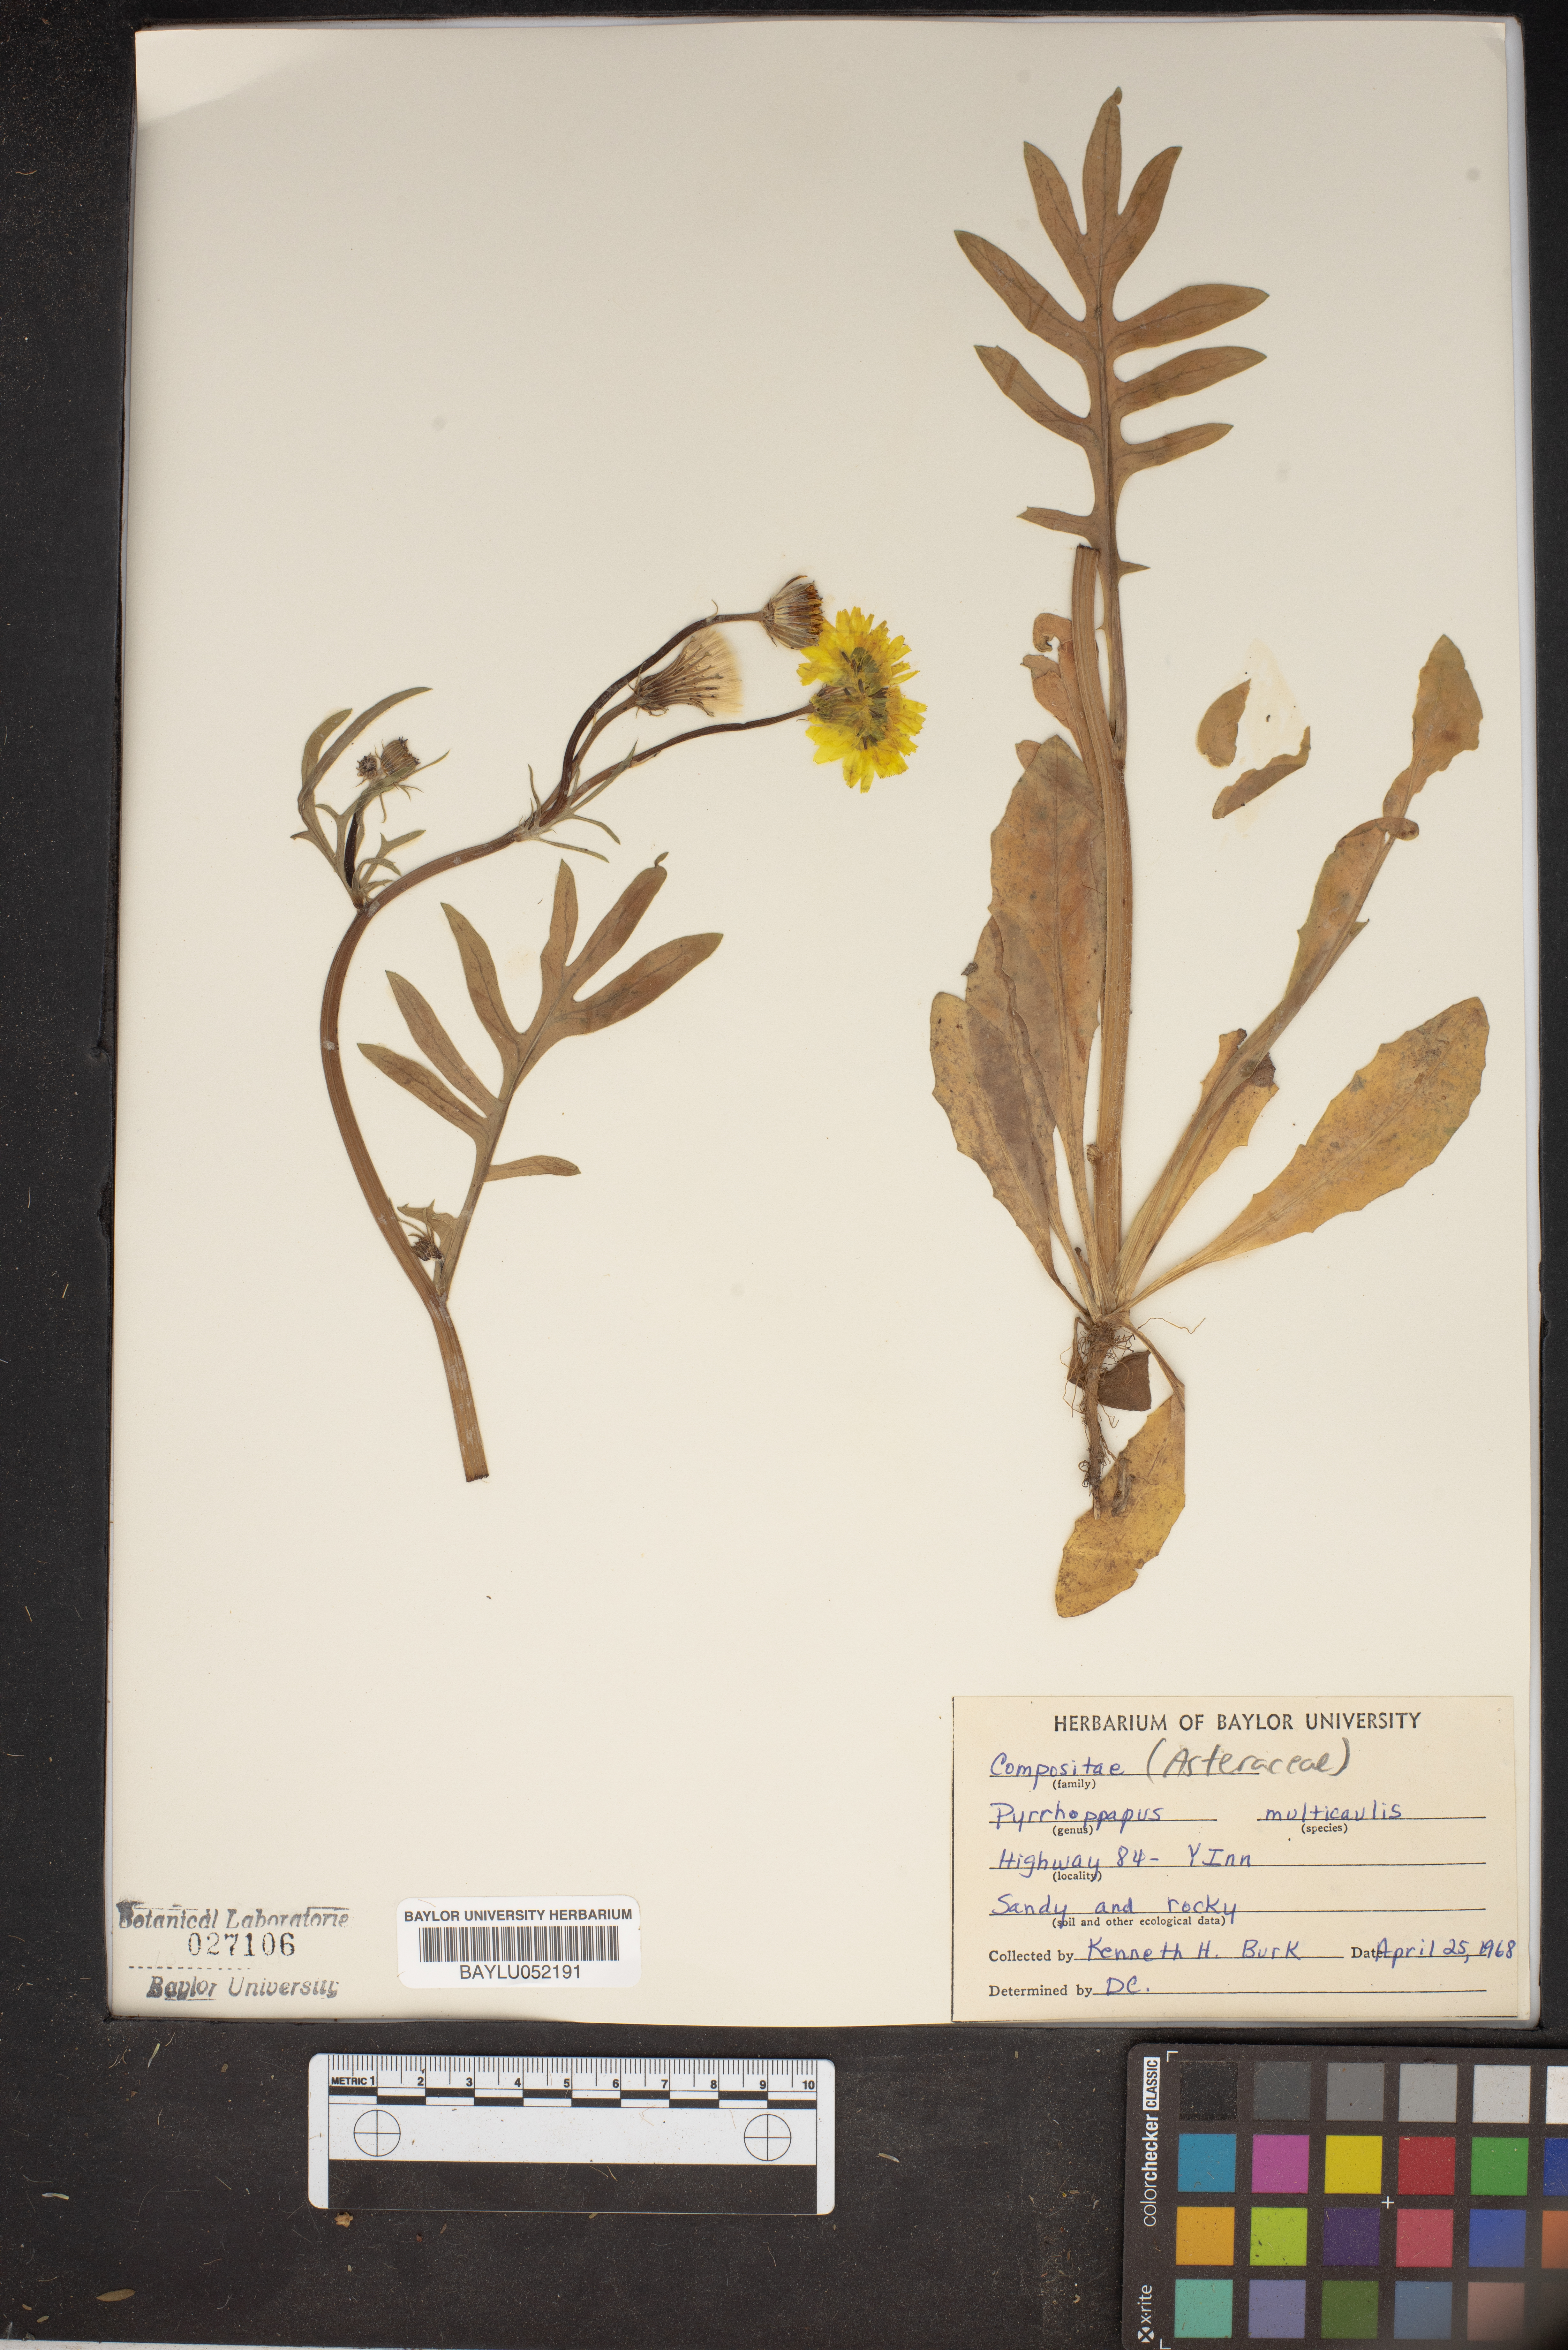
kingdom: Plantae
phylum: Tracheophyta
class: Magnoliopsida
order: Asterales
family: Asteraceae
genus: Pyrrhopappus
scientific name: Pyrrhopappus pauciflorus
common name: Texas false dandelion
